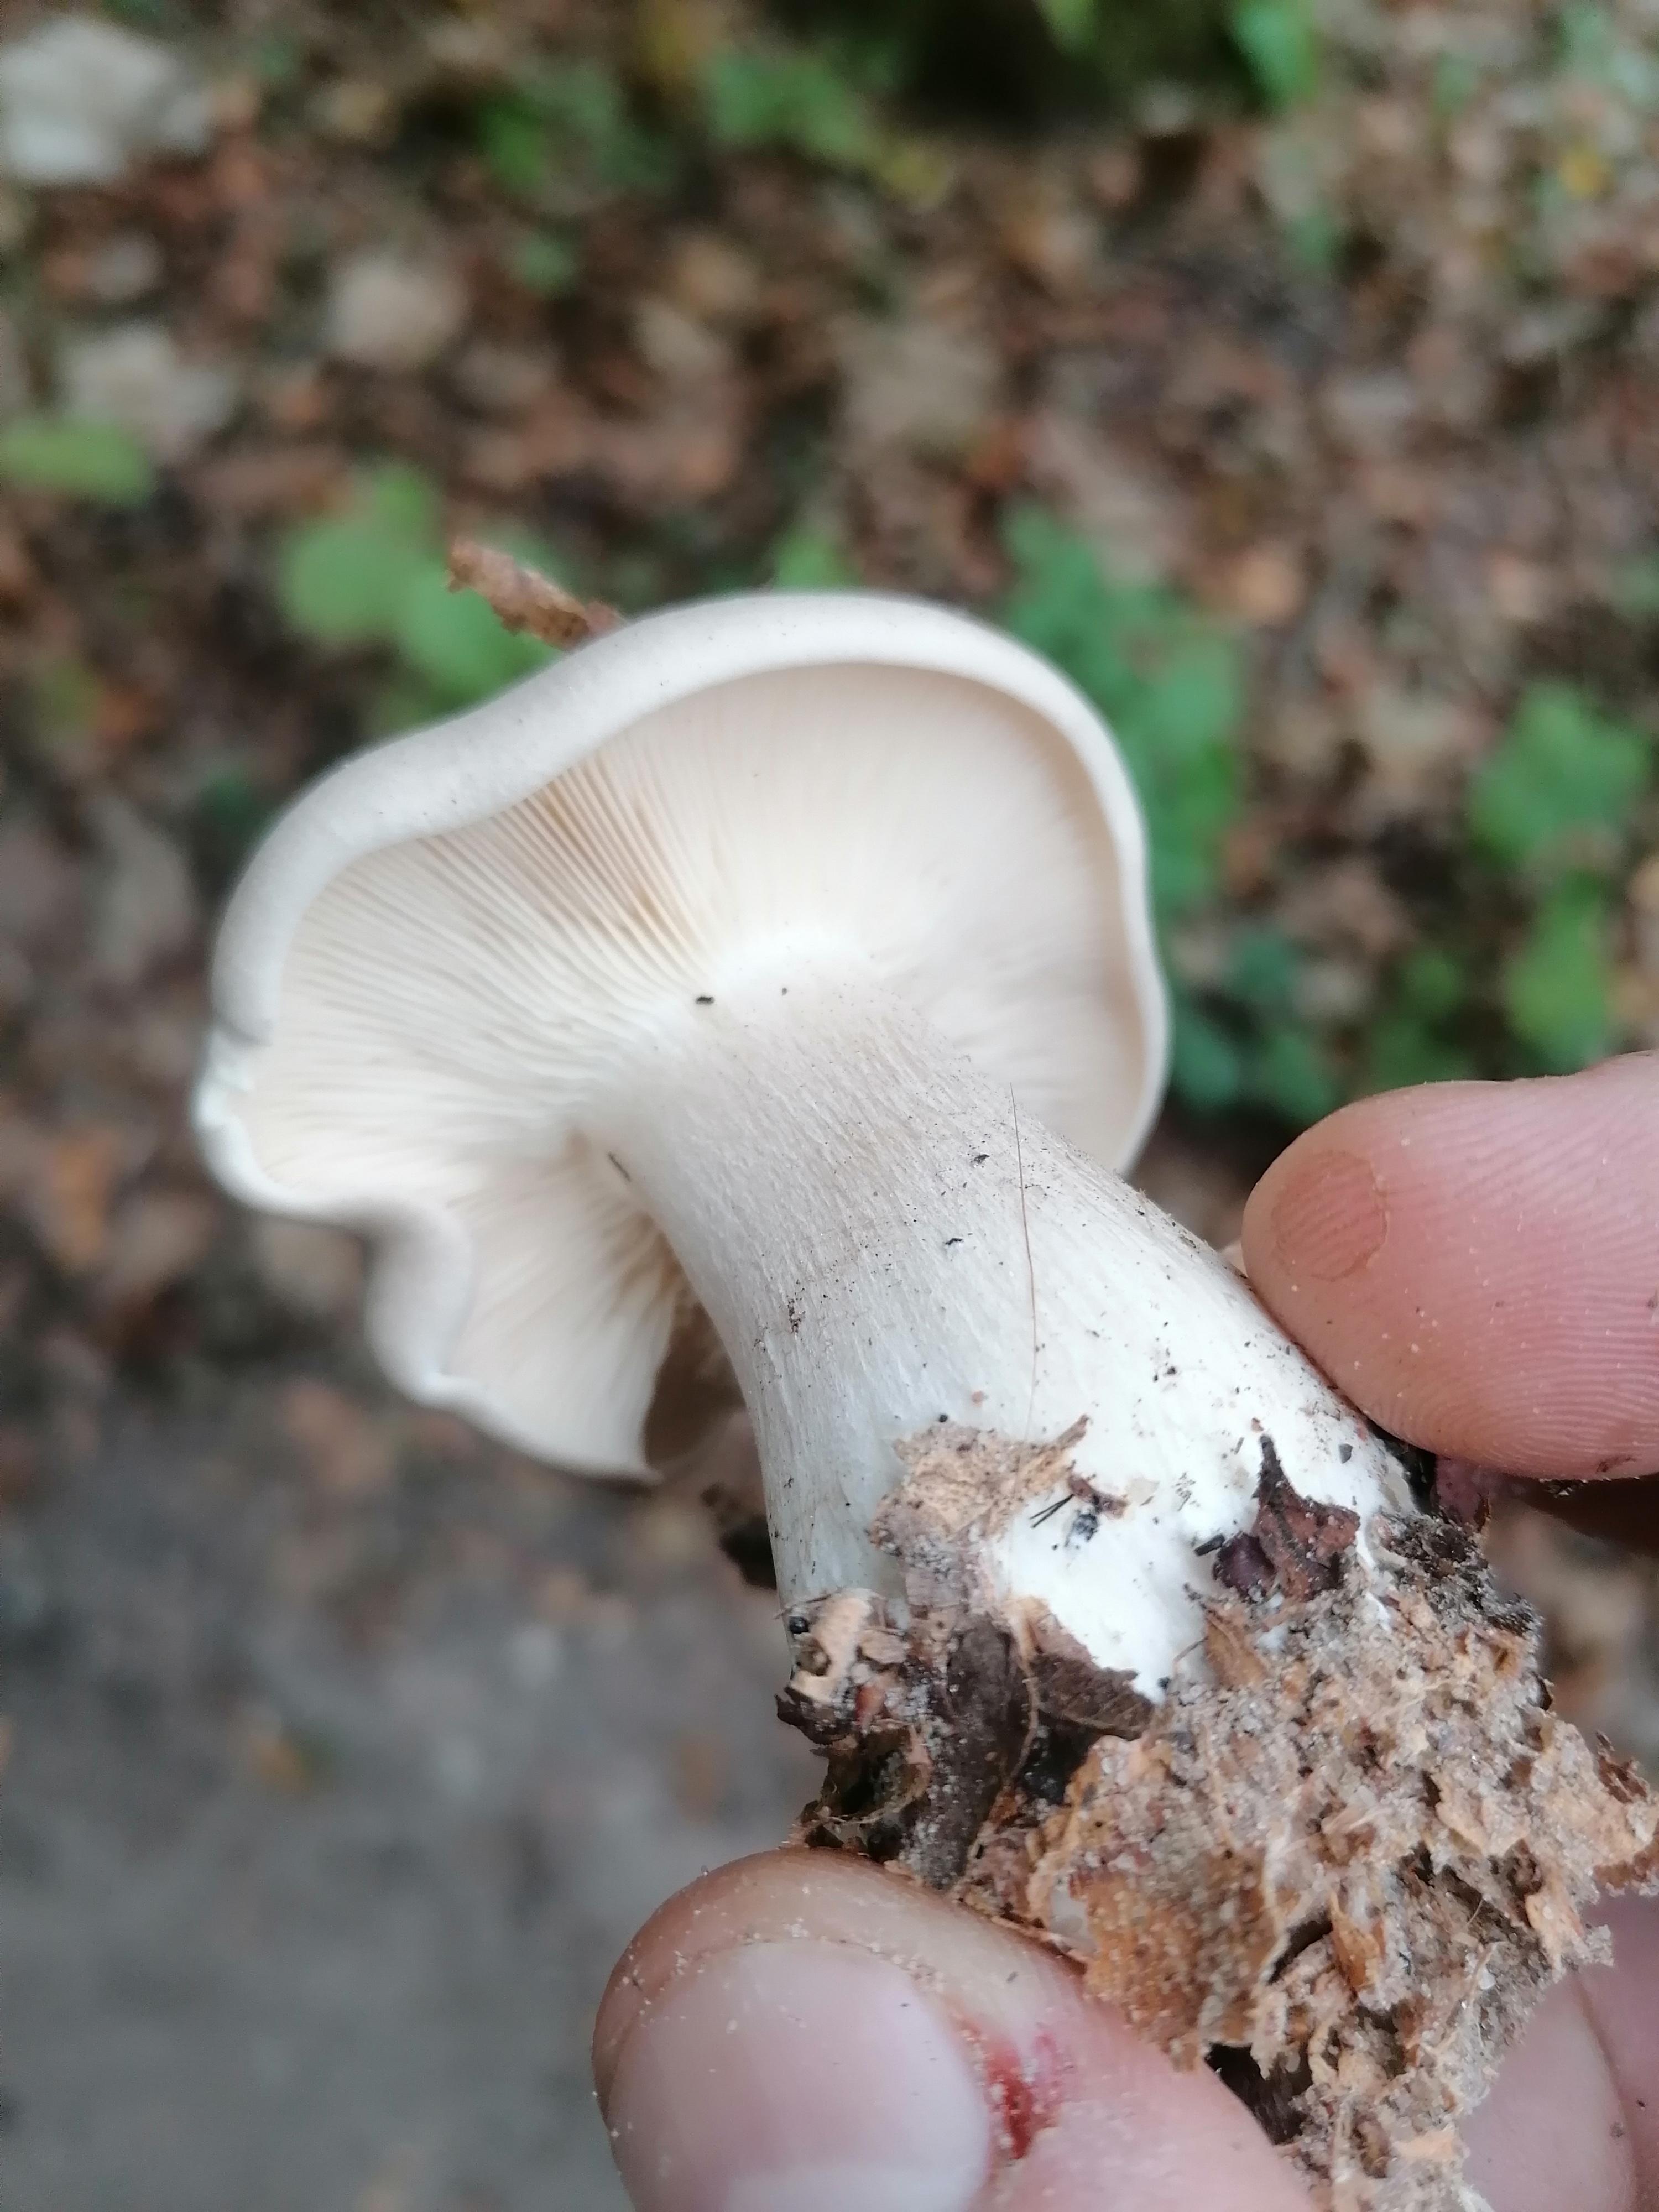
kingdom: Fungi
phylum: Basidiomycota
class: Agaricomycetes
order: Agaricales
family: Tricholomataceae
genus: Clitocybe
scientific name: Clitocybe nebularis
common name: tåge-tragthat
